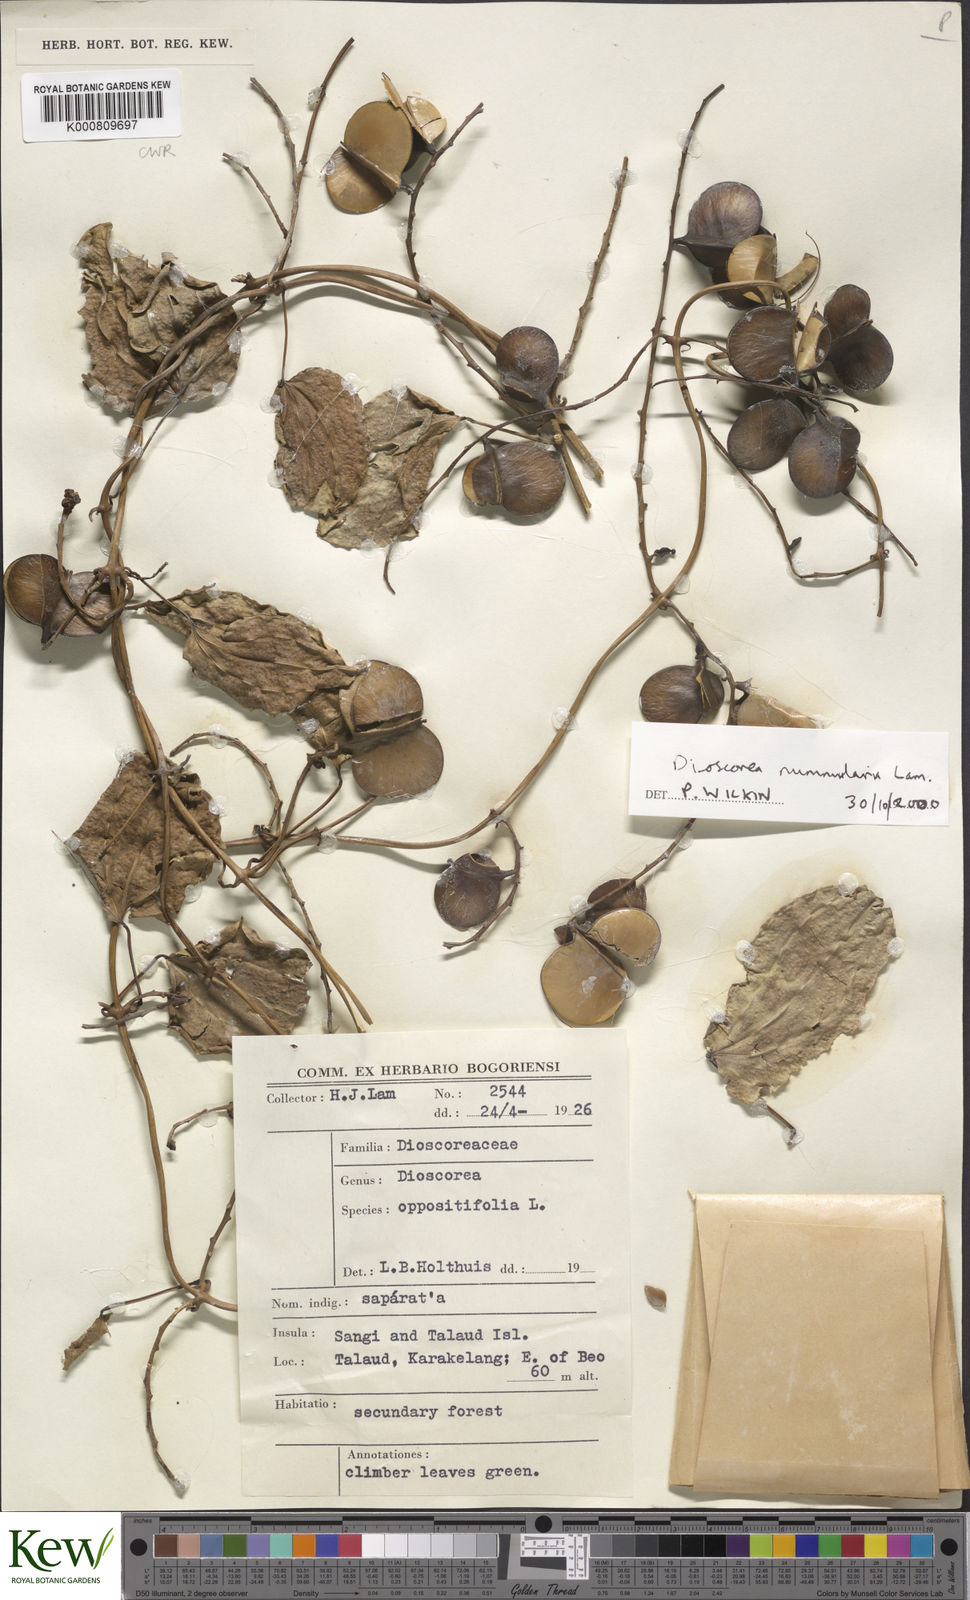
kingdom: Plantae
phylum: Tracheophyta
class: Liliopsida
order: Dioscoreales
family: Dioscoreaceae
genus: Dioscorea
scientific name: Dioscorea nummularia
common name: Pacific yam
